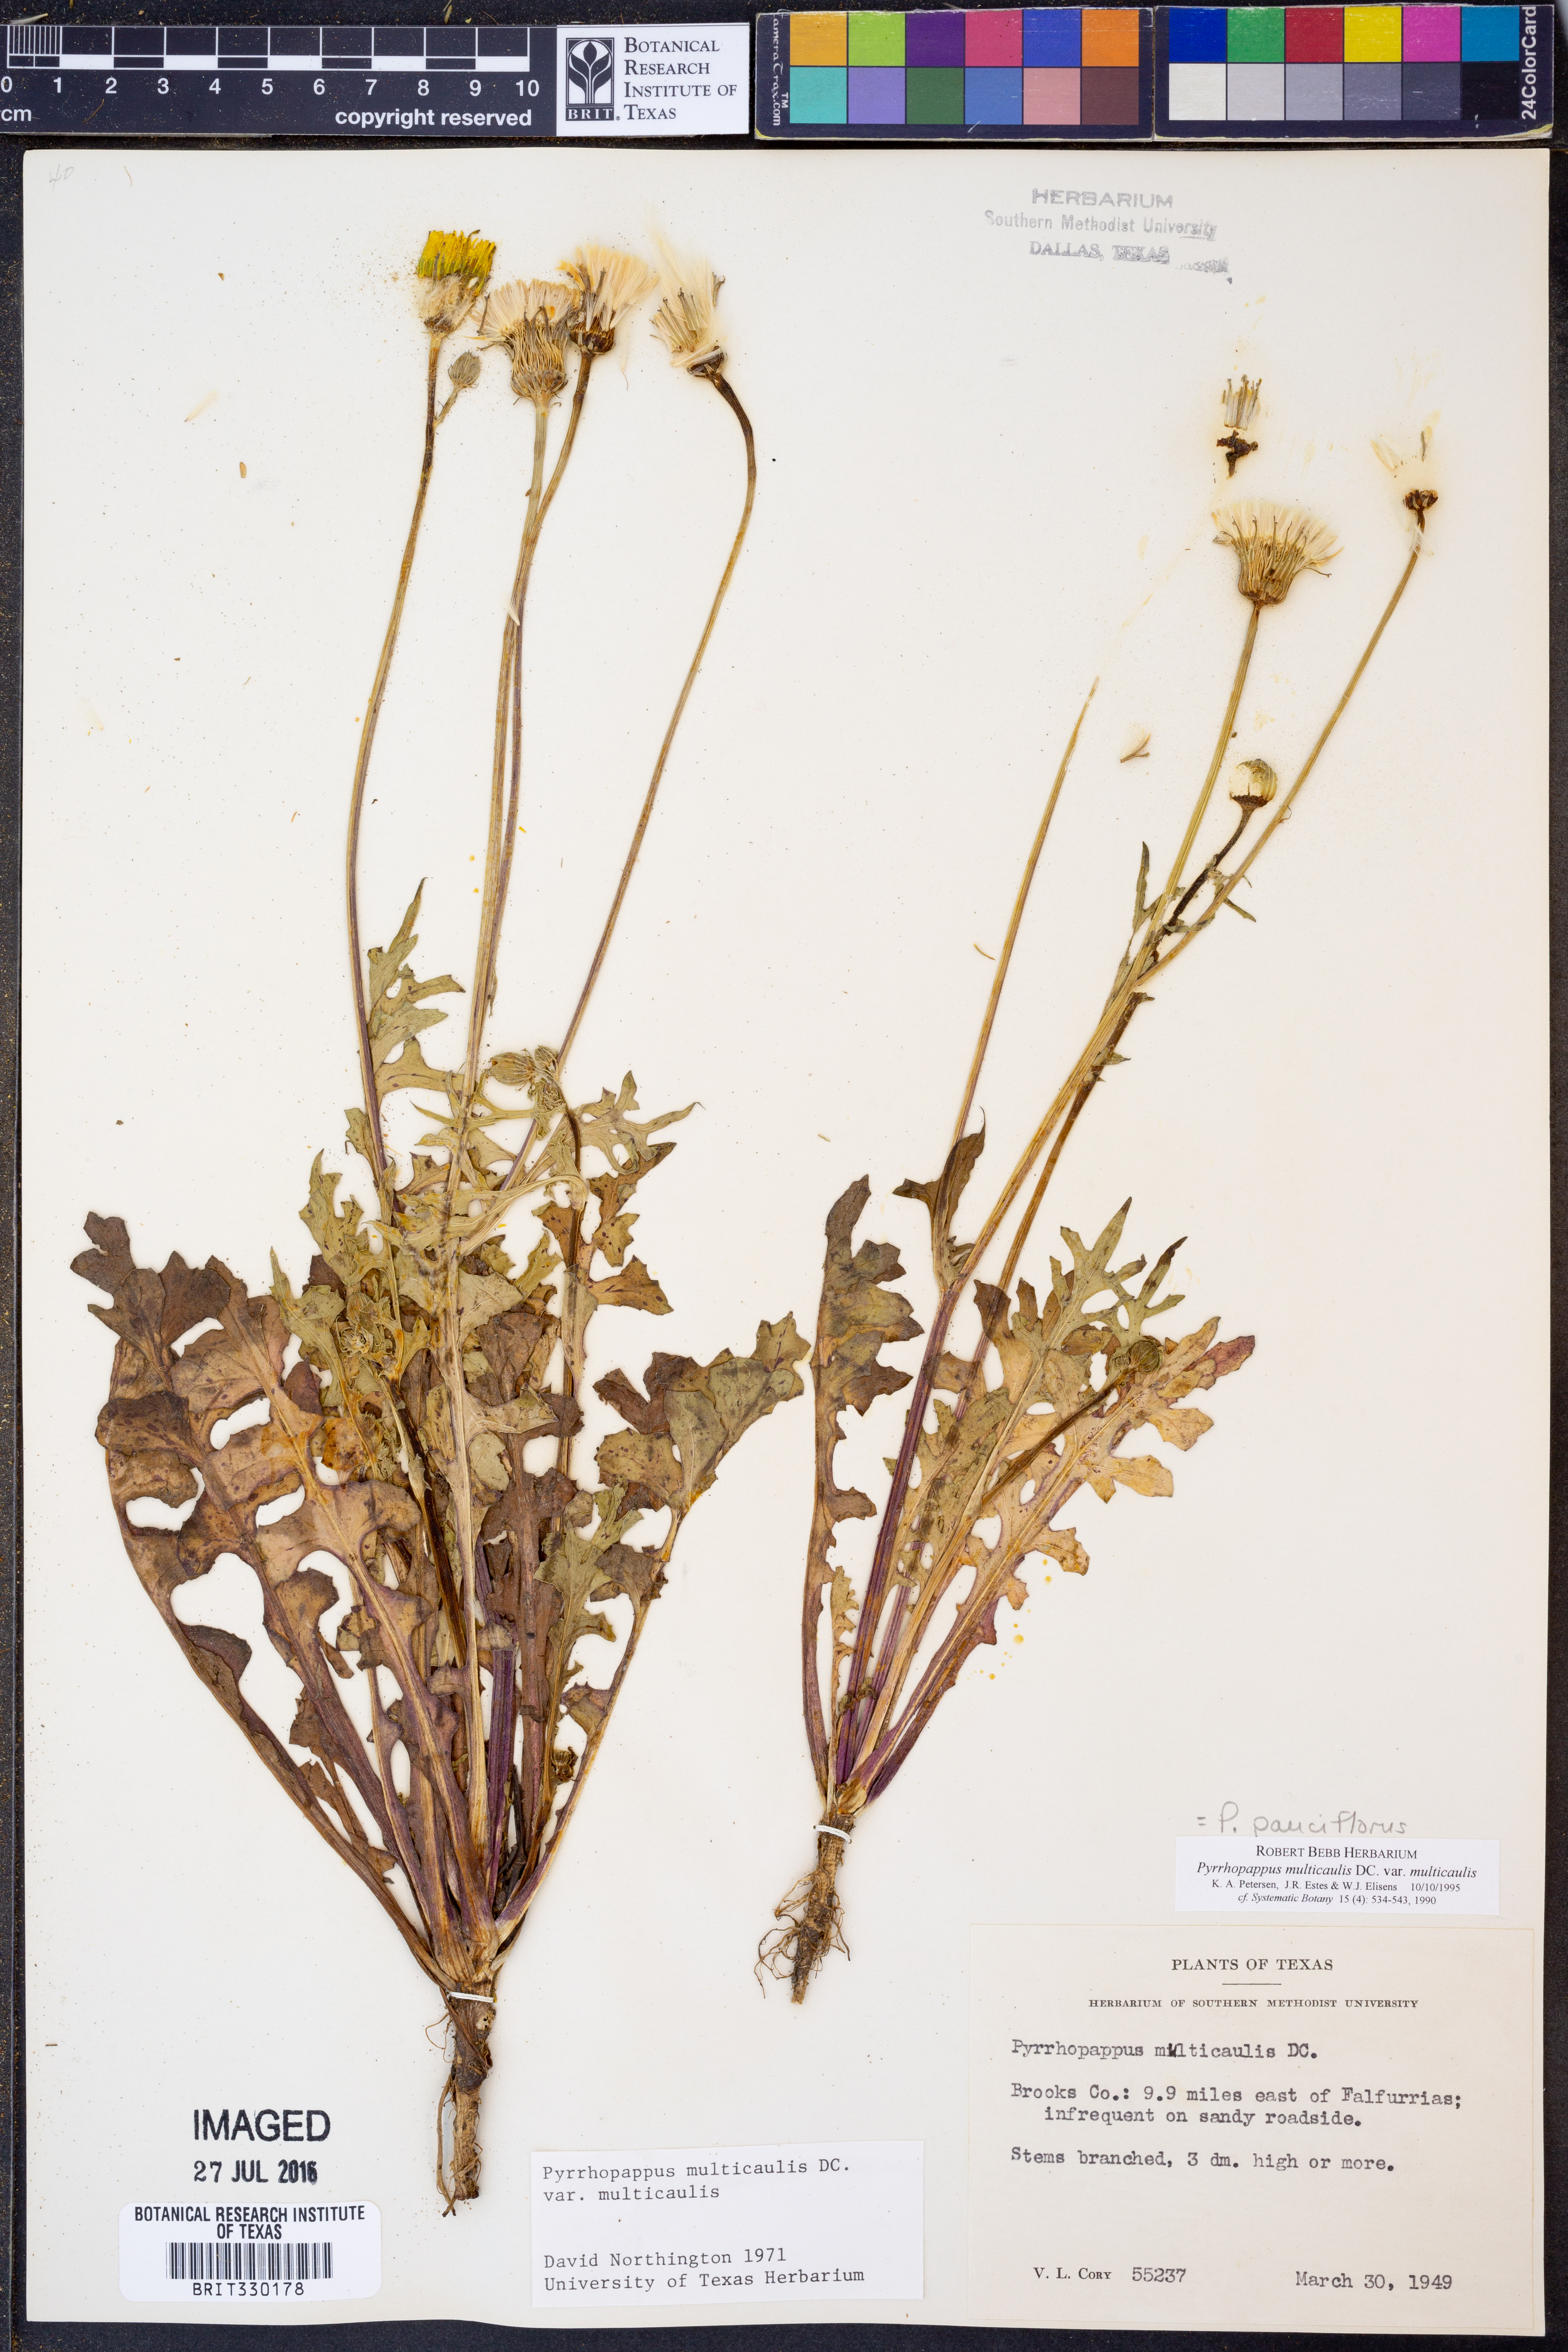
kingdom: Plantae
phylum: Tracheophyta
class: Magnoliopsida
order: Asterales
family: Asteraceae
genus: Pyrrhopappus
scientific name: Pyrrhopappus pauciflorus
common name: Texas false dandelion
